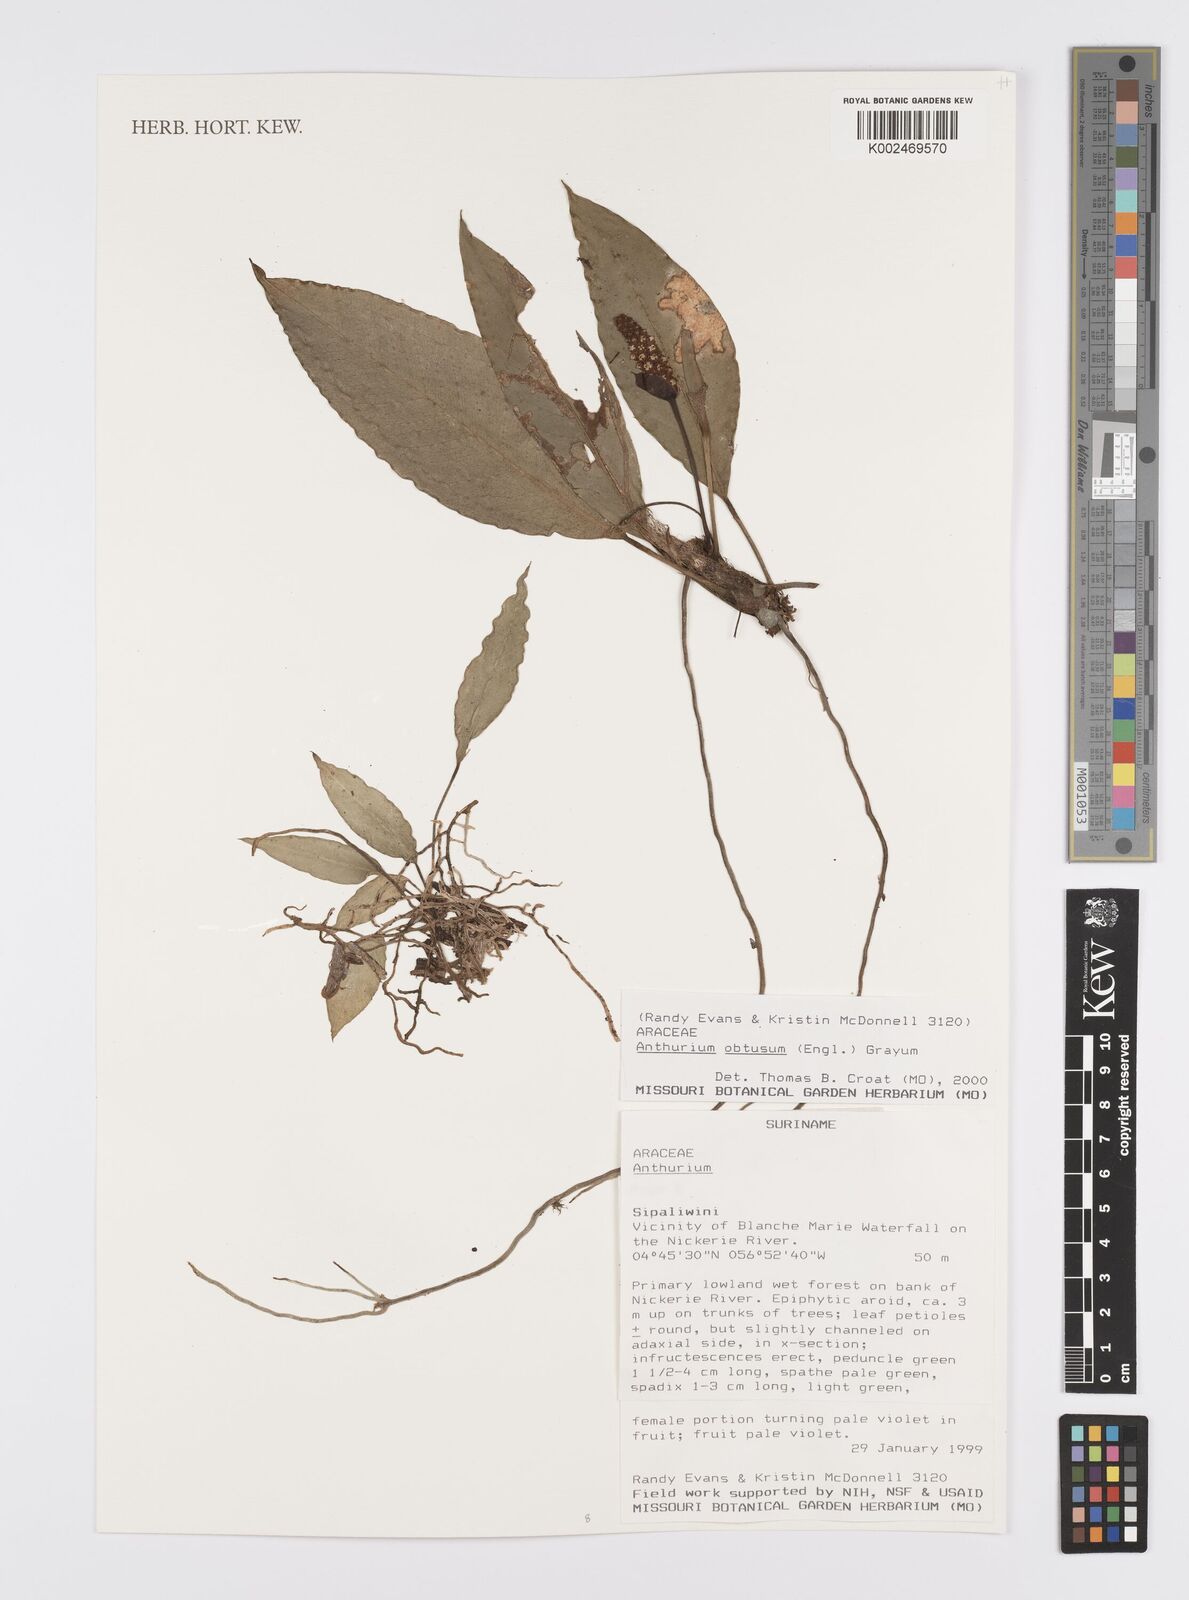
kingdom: Plantae
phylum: Tracheophyta
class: Liliopsida
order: Alismatales
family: Araceae
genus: Anthurium
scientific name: Anthurium obtusum
